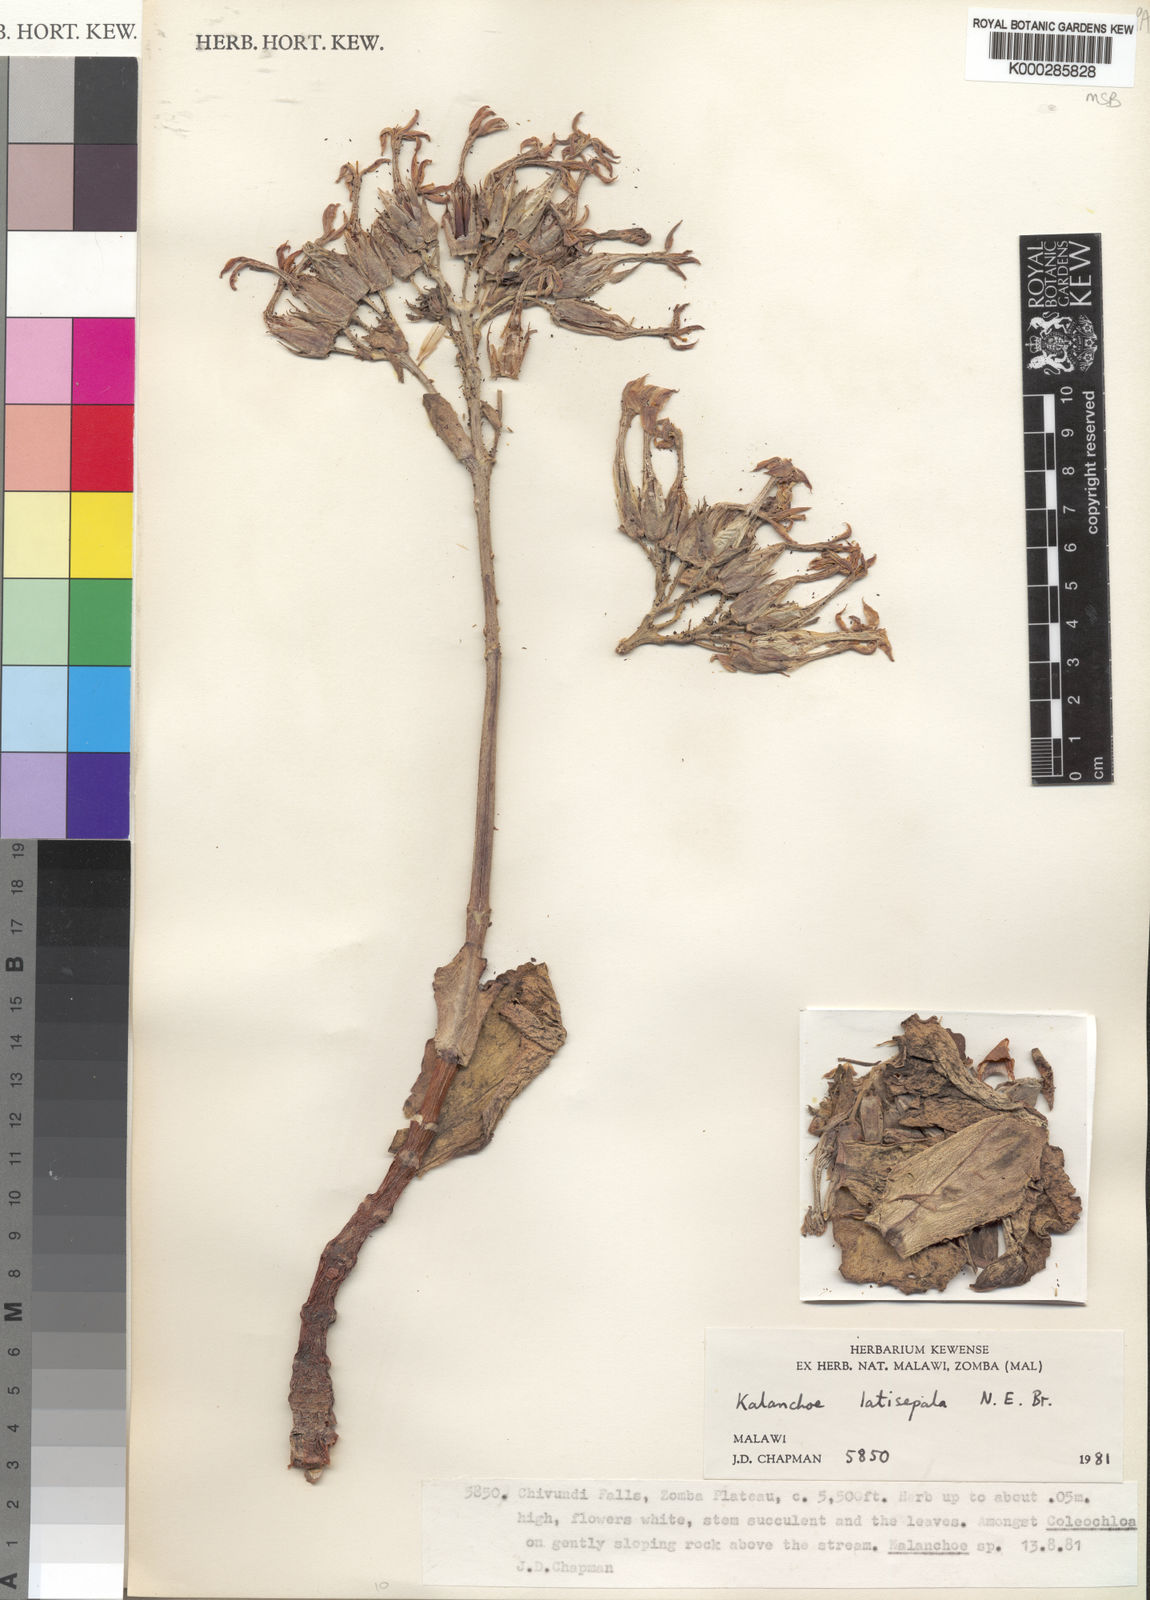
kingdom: Plantae
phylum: Tracheophyta
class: Magnoliopsida
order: Saxifragales
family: Crassulaceae
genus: Kalanchoe
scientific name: Kalanchoe latisepala
